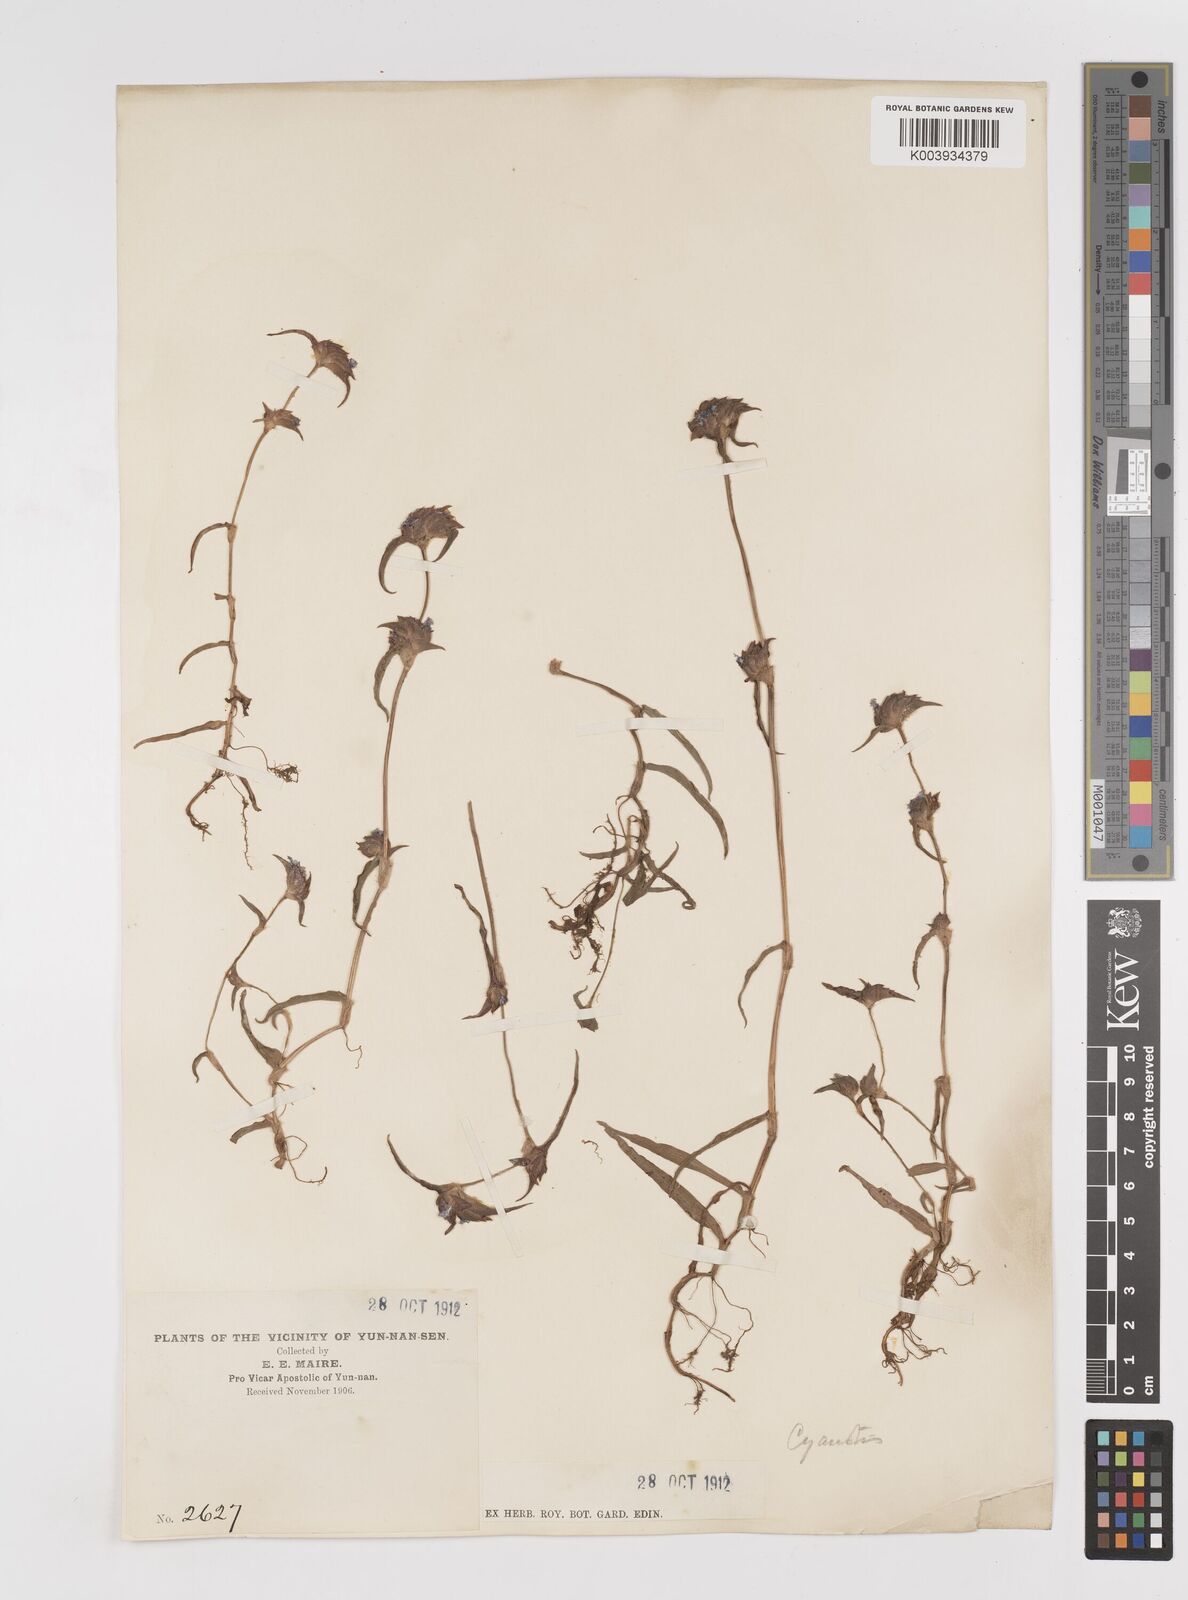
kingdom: Plantae
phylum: Tracheophyta
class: Liliopsida
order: Commelinales
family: Commelinaceae
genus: Cyanotis
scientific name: Cyanotis
